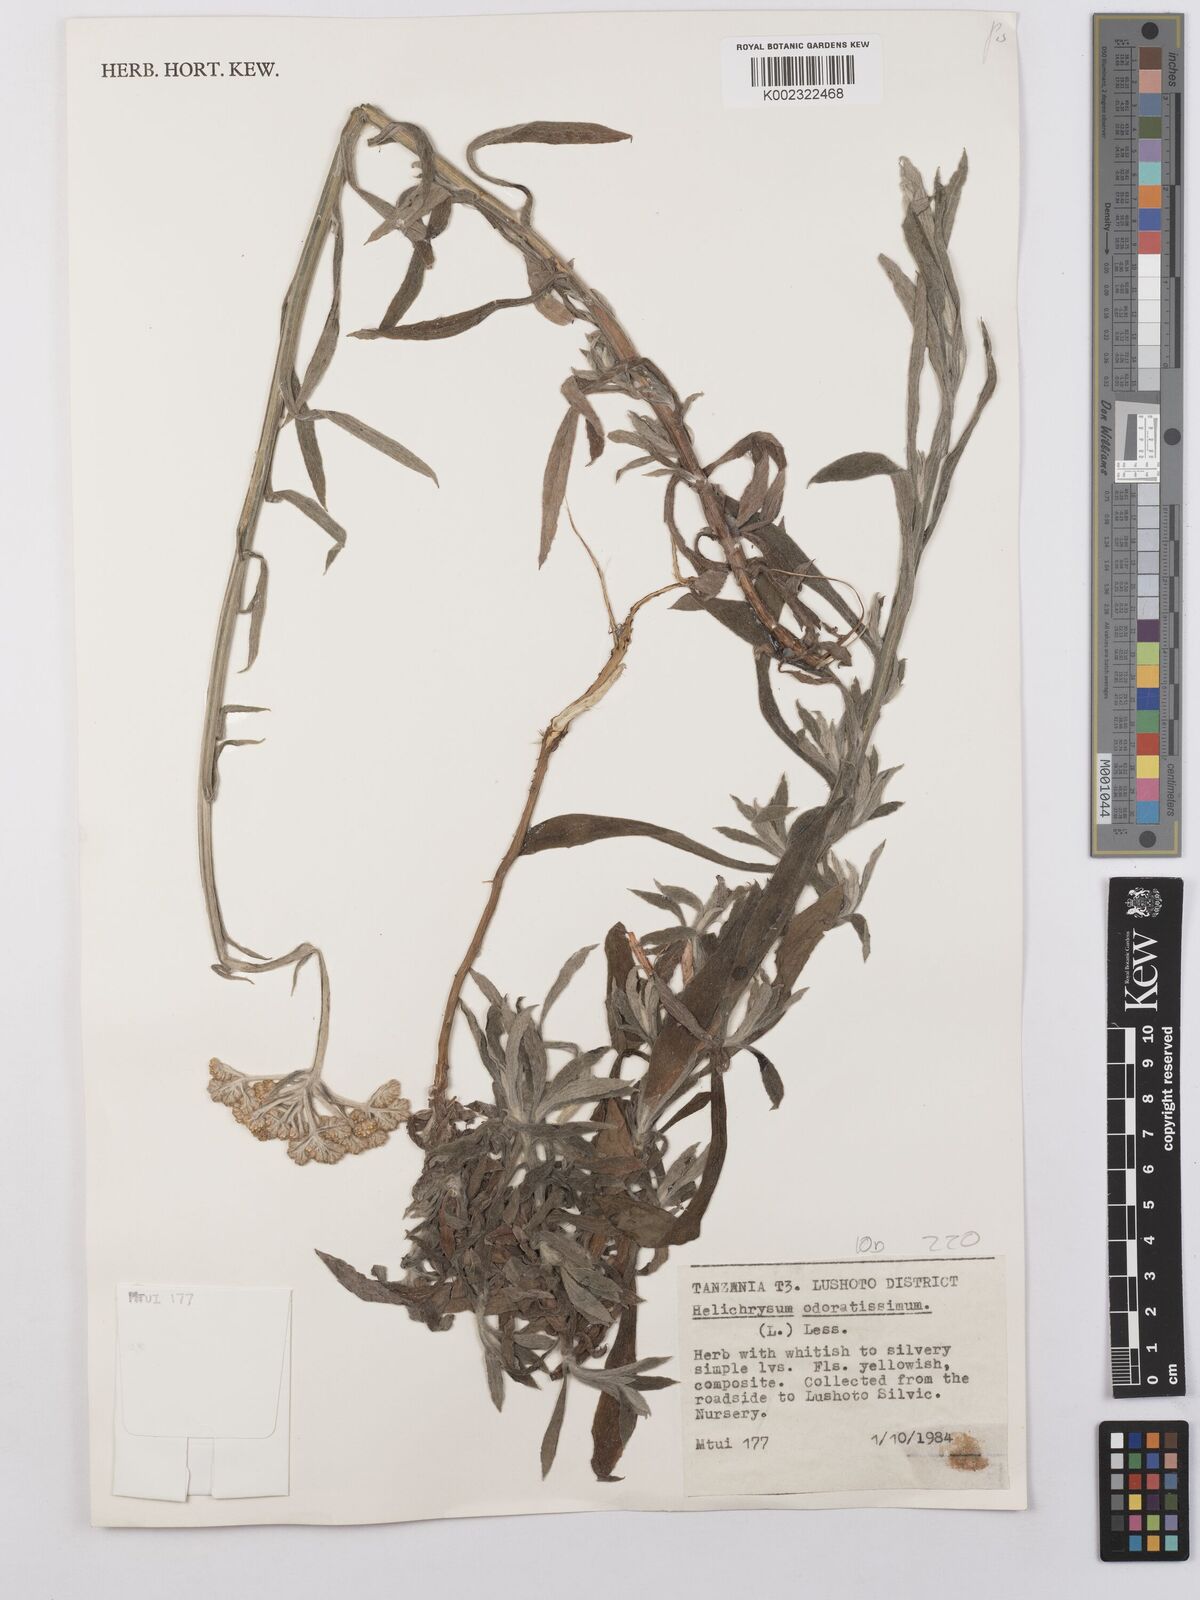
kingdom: Plantae
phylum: Tracheophyta
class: Magnoliopsida
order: Asterales
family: Asteraceae
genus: Helichrysum
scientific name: Helichrysum stenopterum
